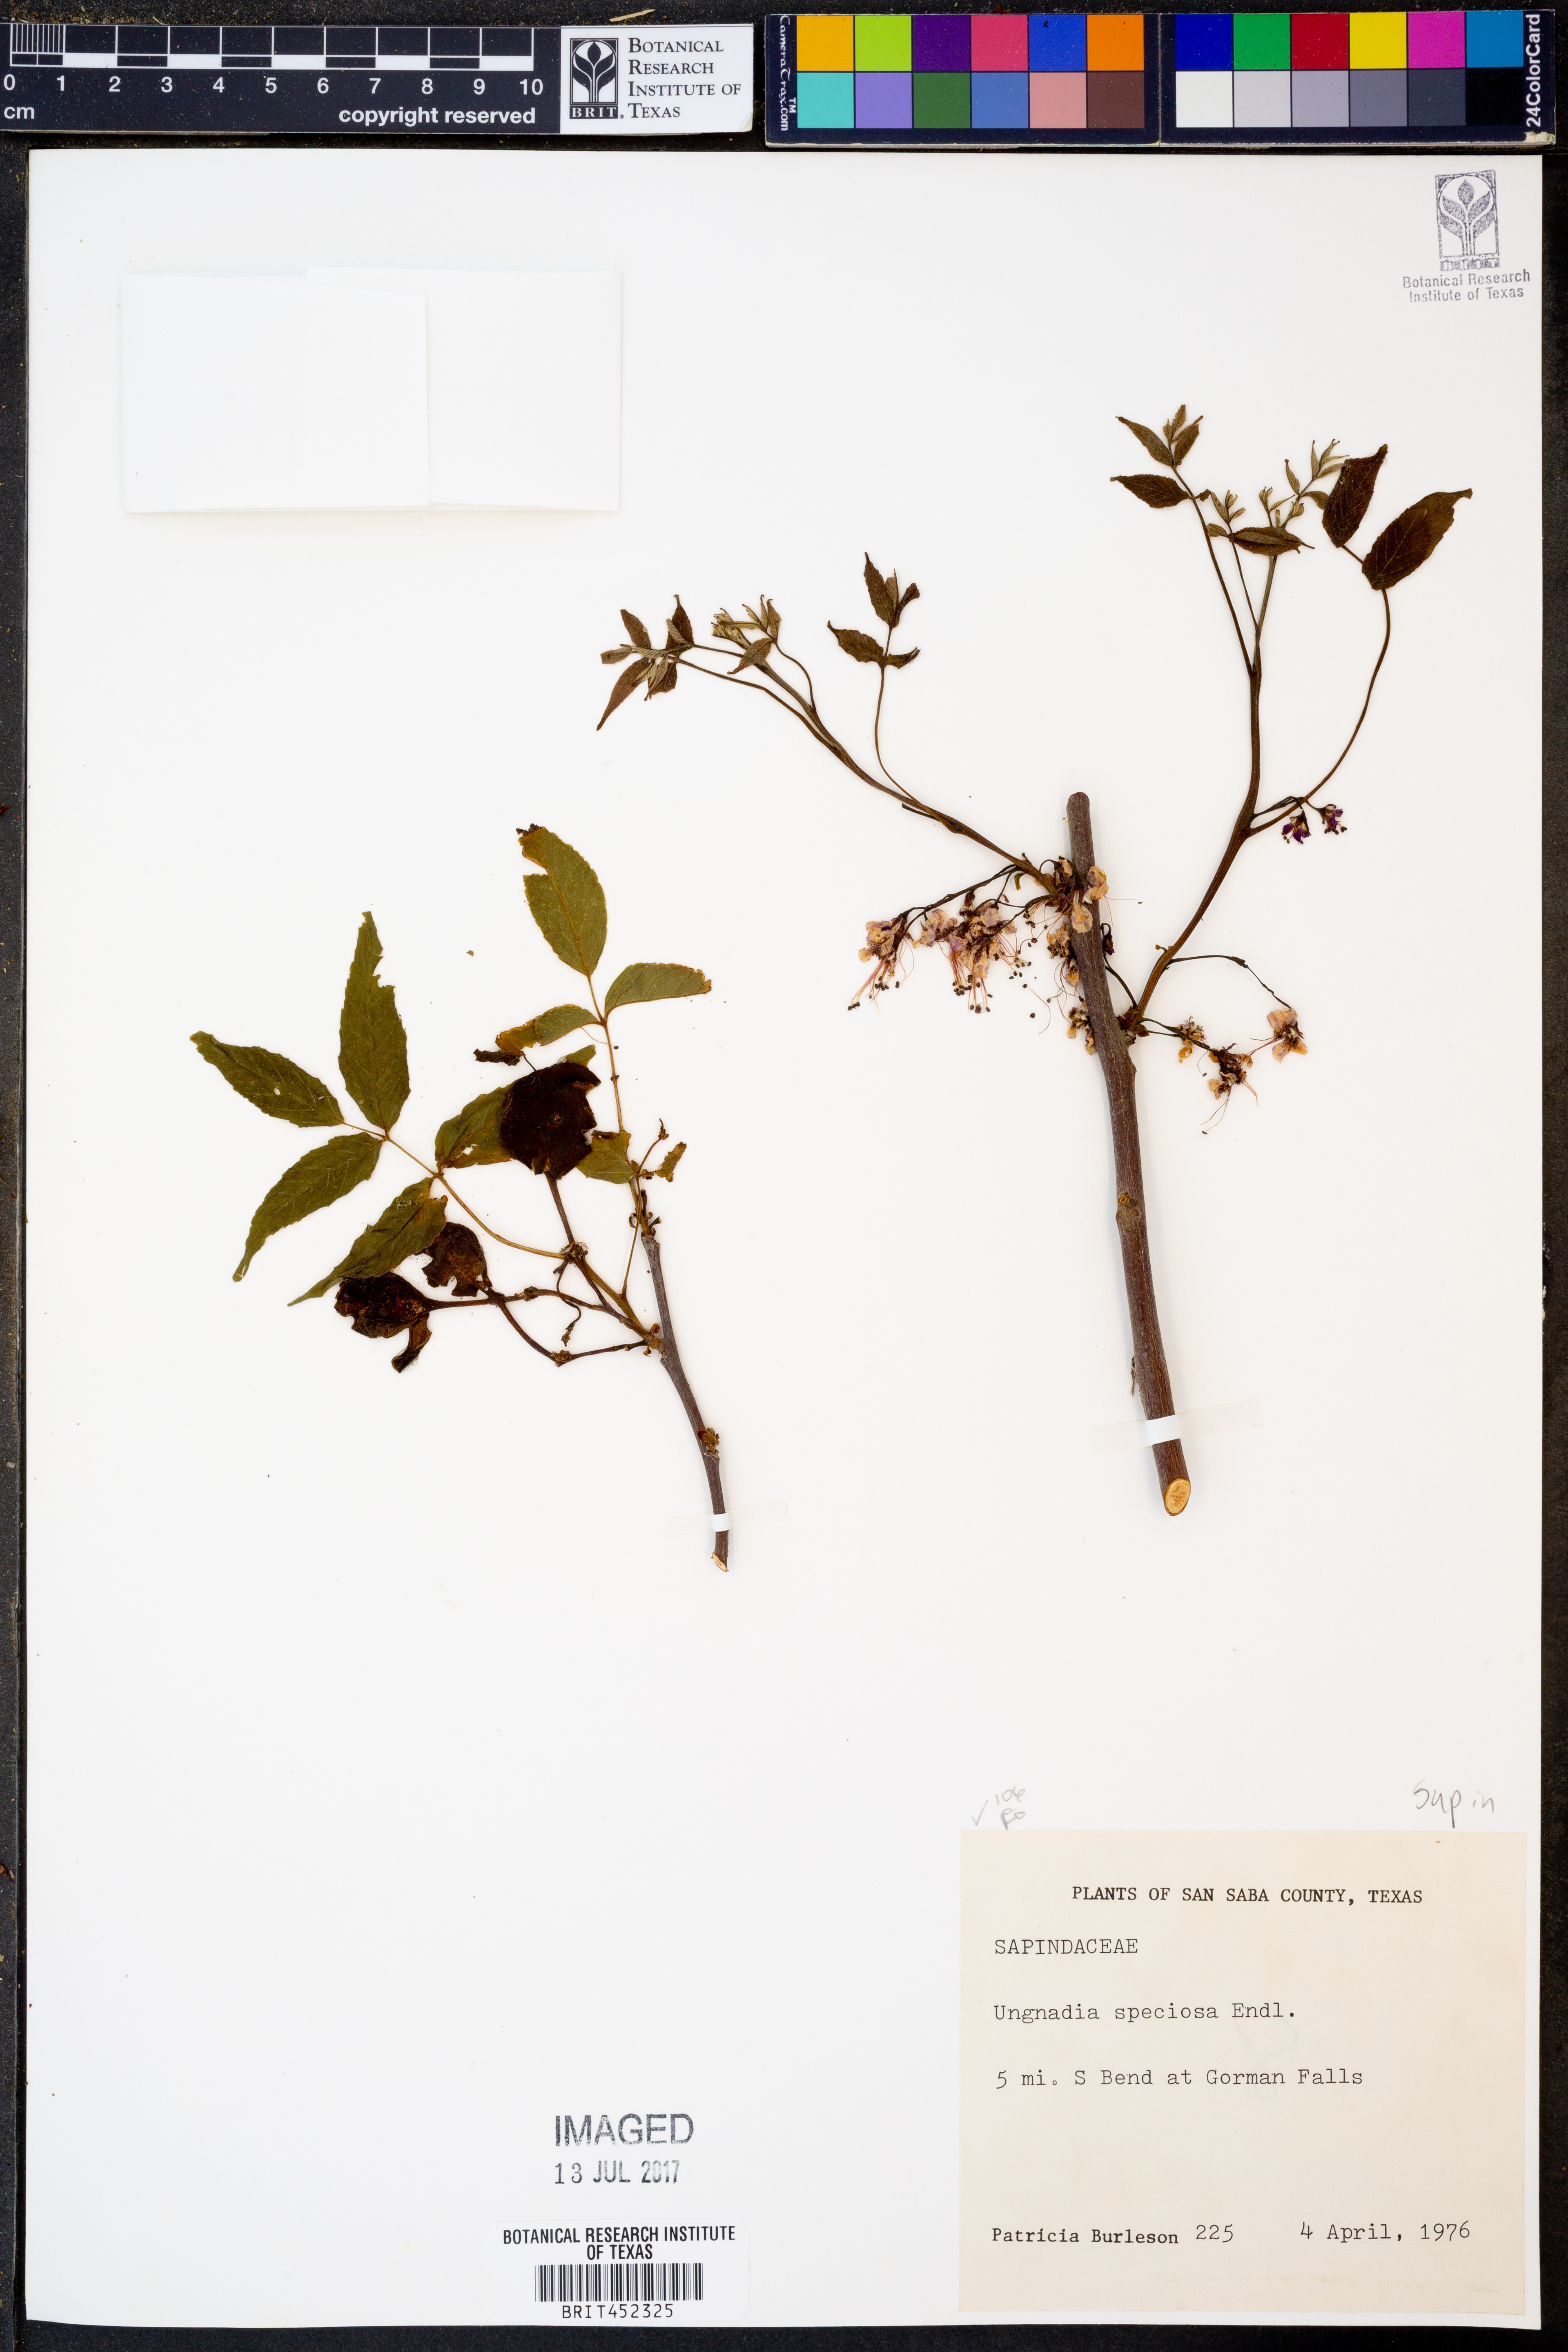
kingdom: Plantae
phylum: Tracheophyta
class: Magnoliopsida
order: Sapindales
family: Sapindaceae
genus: Ungnadia
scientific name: Ungnadia speciosa
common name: Texas-buckeye
